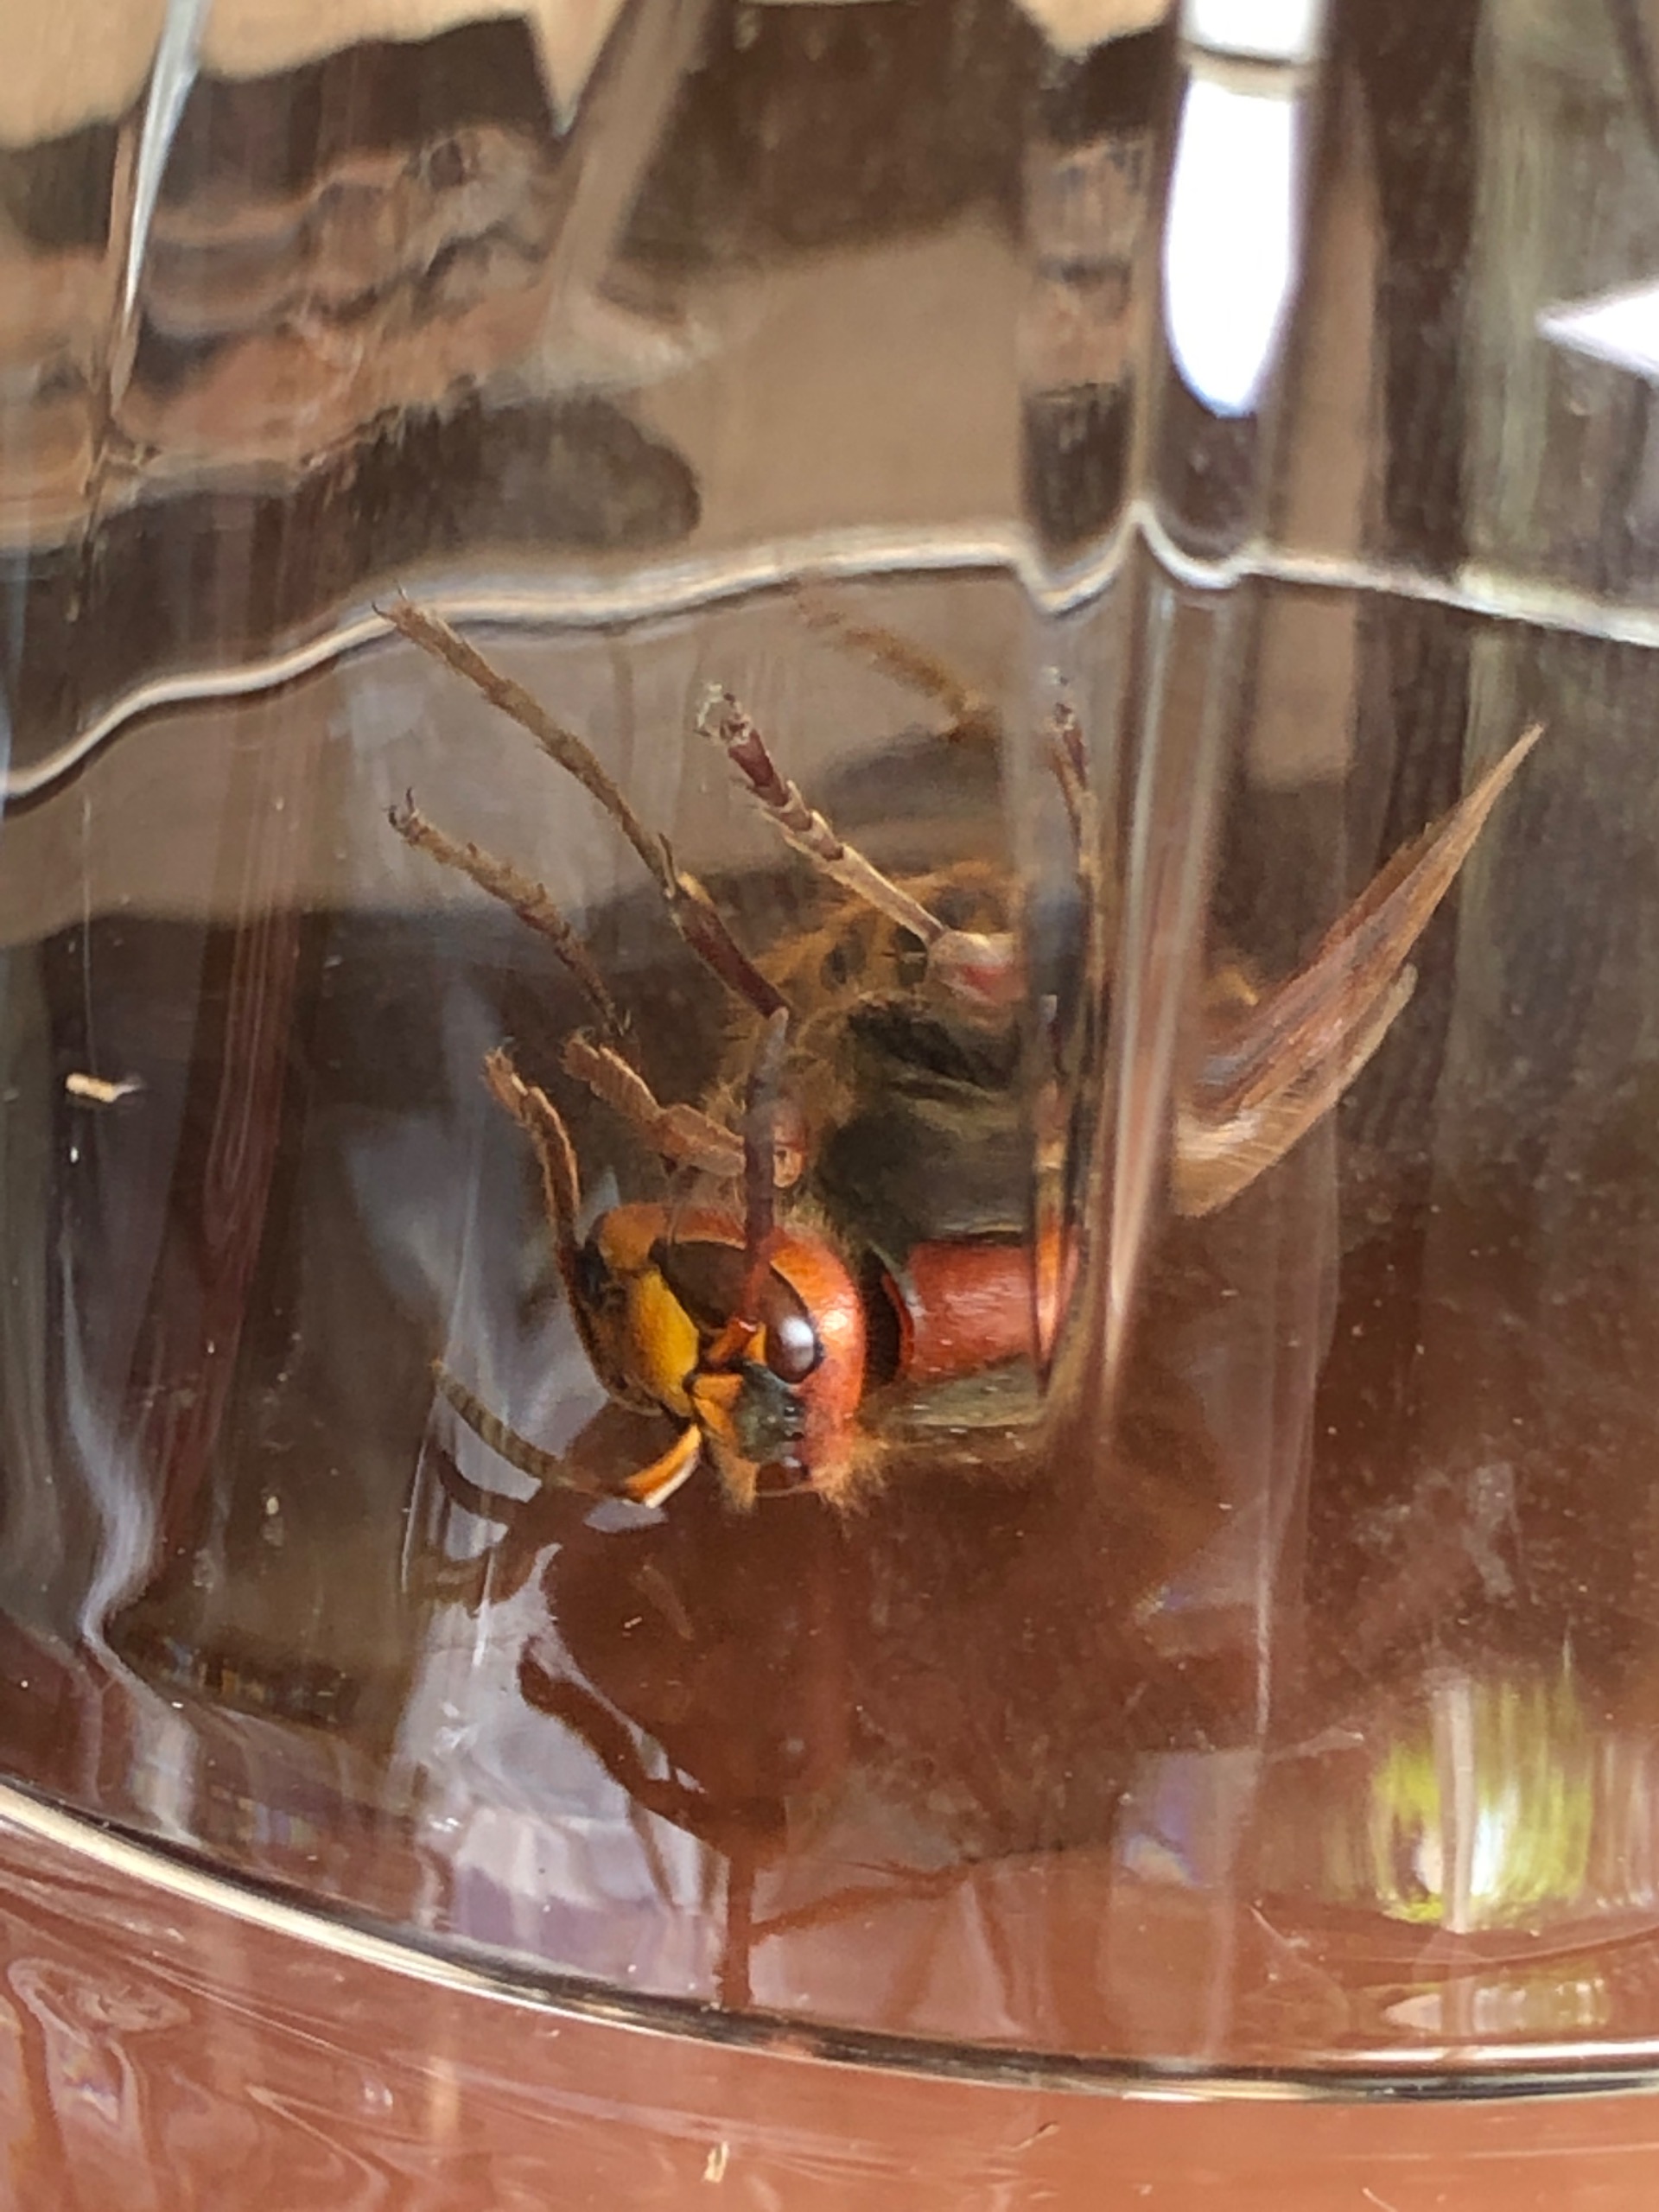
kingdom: Animalia
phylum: Arthropoda
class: Insecta
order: Hymenoptera
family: Vespidae
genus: Vespa
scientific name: Vespa crabro
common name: Stor gedehams
